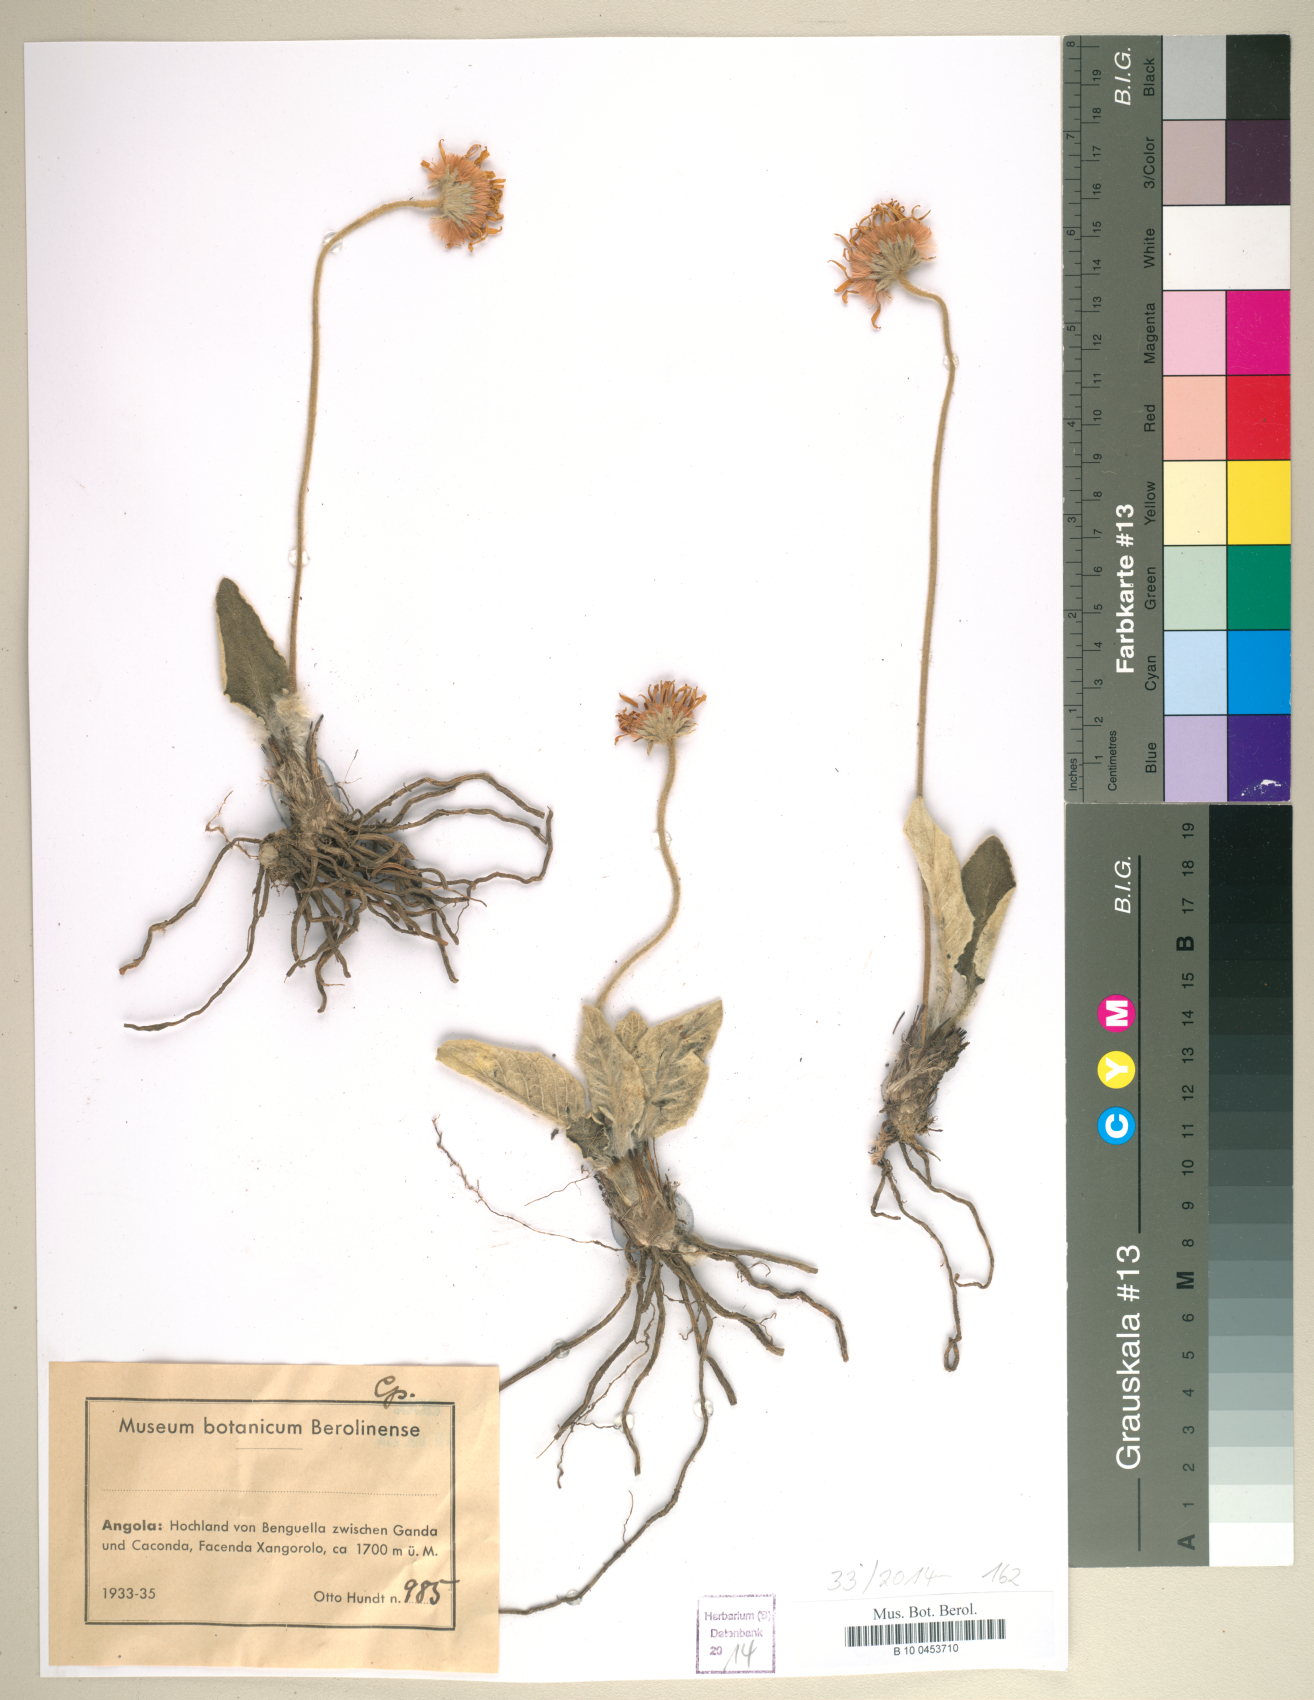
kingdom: Plantae
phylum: Tracheophyta
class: Magnoliopsida
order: Asterales
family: Asteraceae
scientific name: Asteraceae
